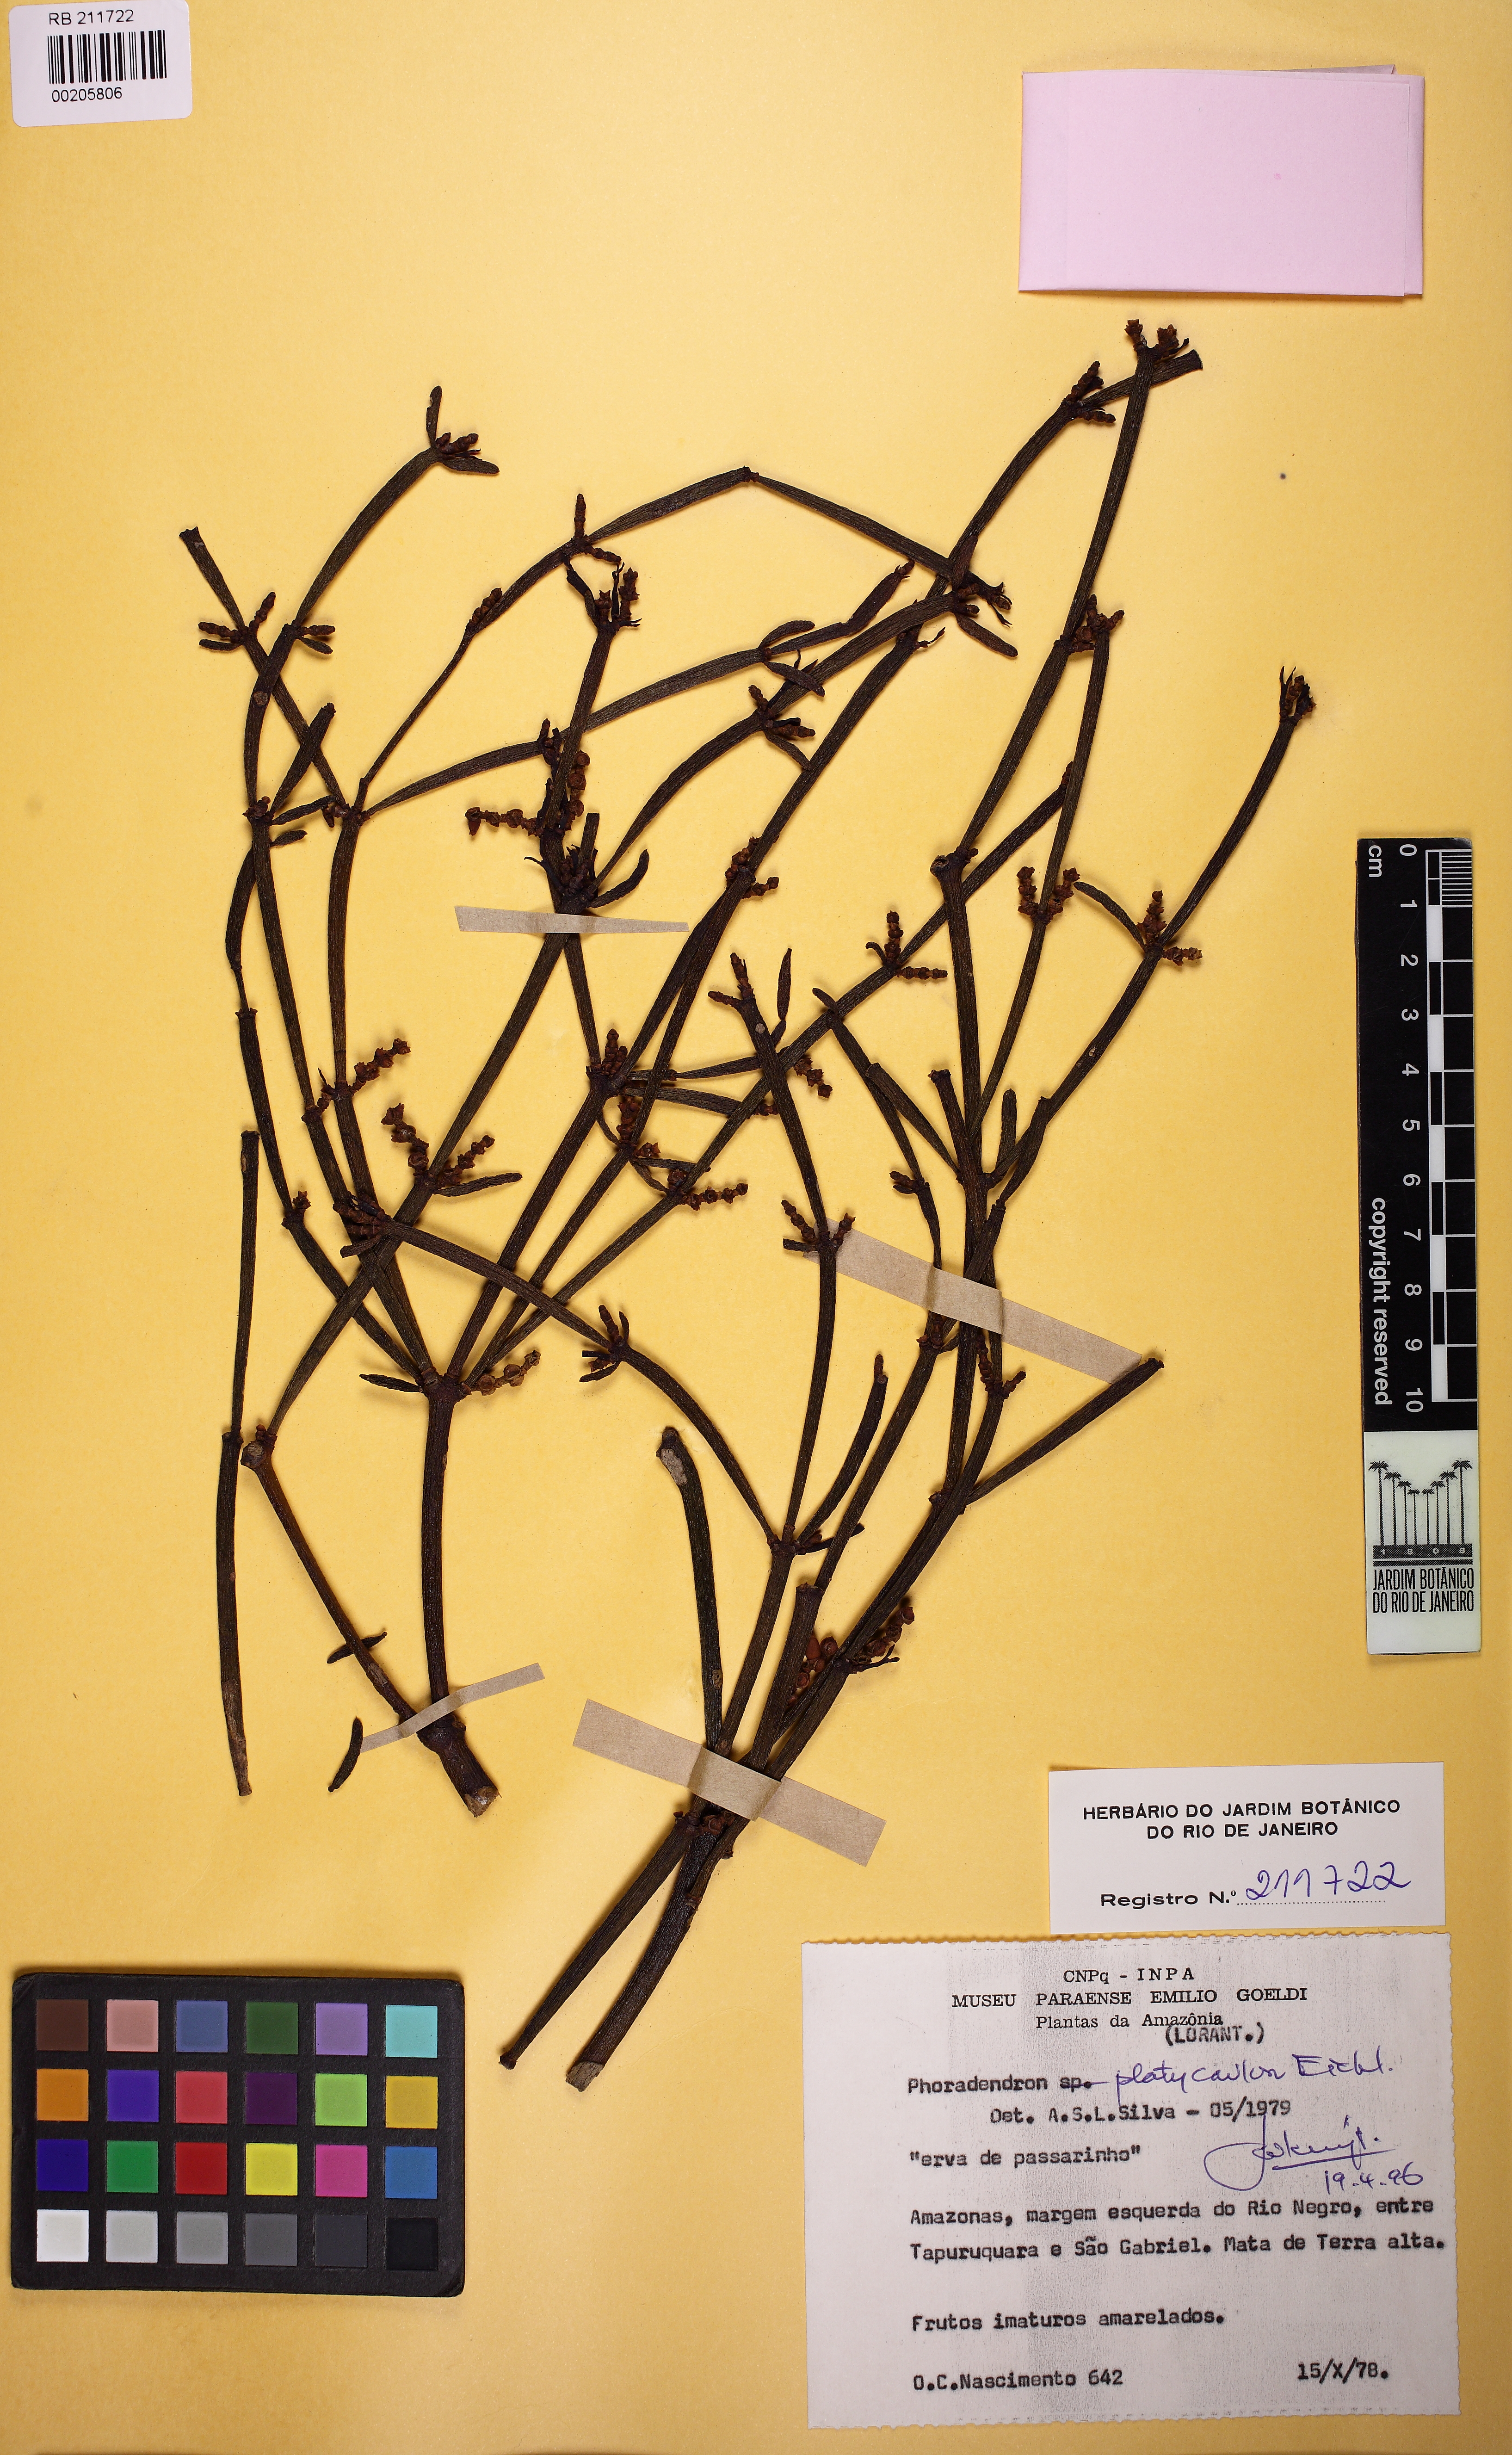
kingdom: Plantae
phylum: Tracheophyta
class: Magnoliopsida
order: Santalales
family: Viscaceae
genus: Phoradendron
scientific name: Phoradendron planiphyllum
